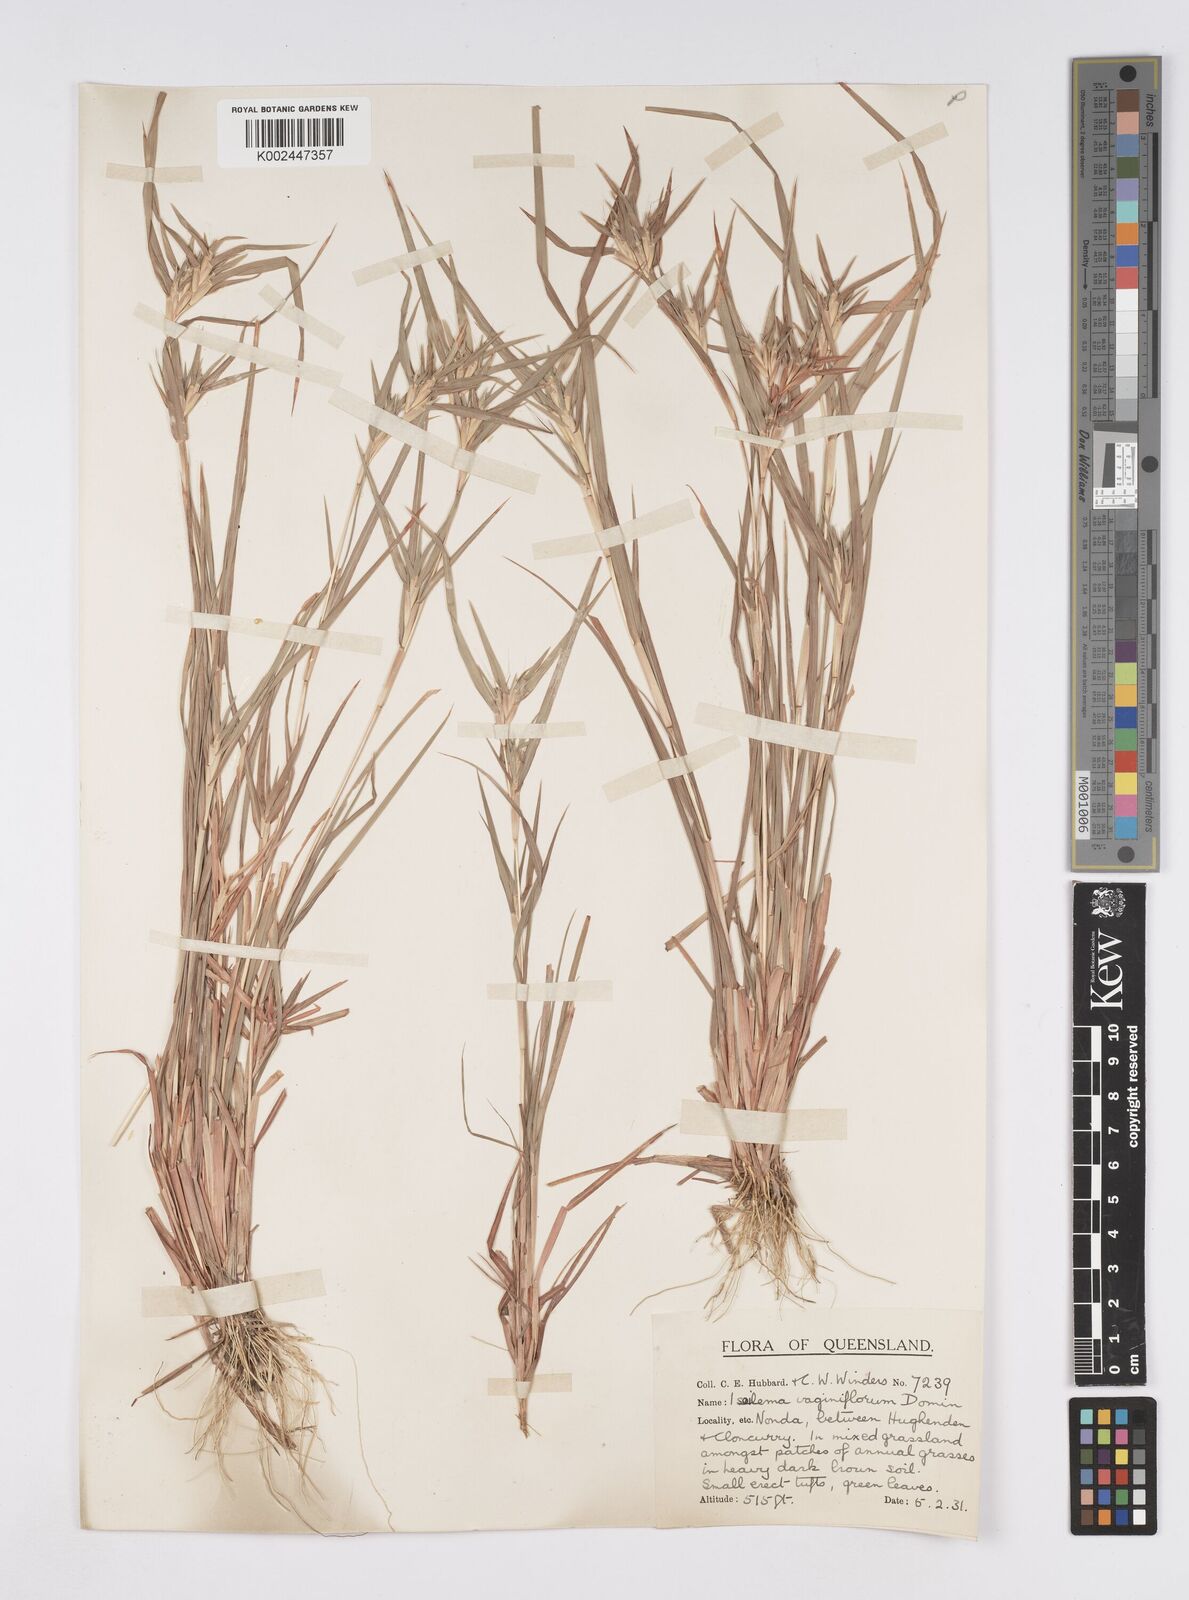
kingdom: Plantae
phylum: Tracheophyta
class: Liliopsida
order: Poales
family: Poaceae
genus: Iseilema
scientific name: Iseilema vaginiflorum
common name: Red flinders grass
